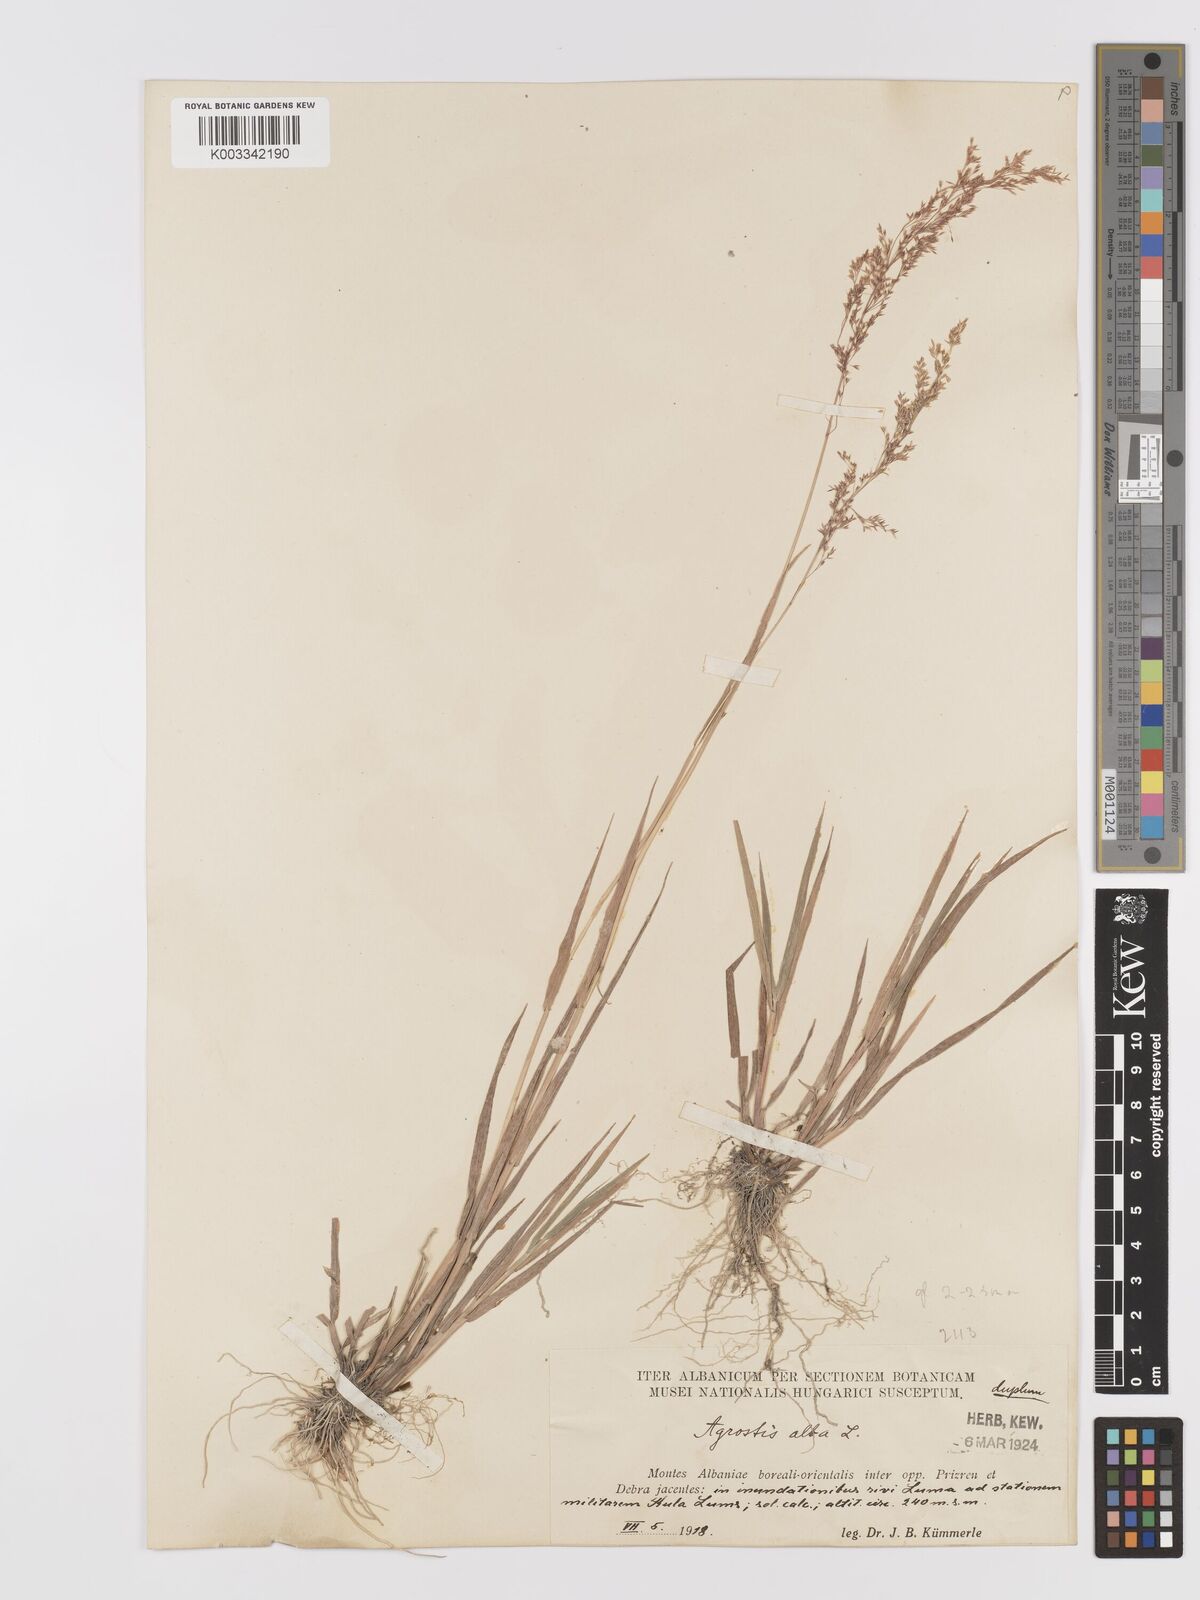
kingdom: Plantae
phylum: Tracheophyta
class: Liliopsida
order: Poales
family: Poaceae
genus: Agrostis
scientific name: Agrostis stolonifera
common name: Creeping bentgrass
